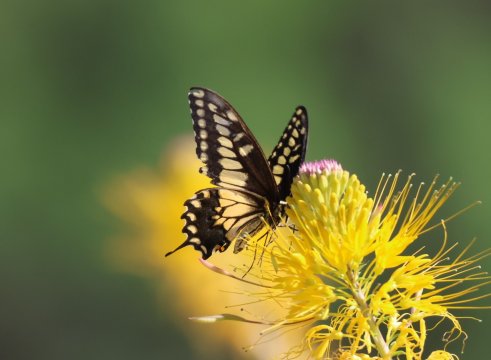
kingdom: Animalia
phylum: Arthropoda
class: Insecta
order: Lepidoptera
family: Papilionidae
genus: Papilio
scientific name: Papilio polyxenes
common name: Black Swallowtail
